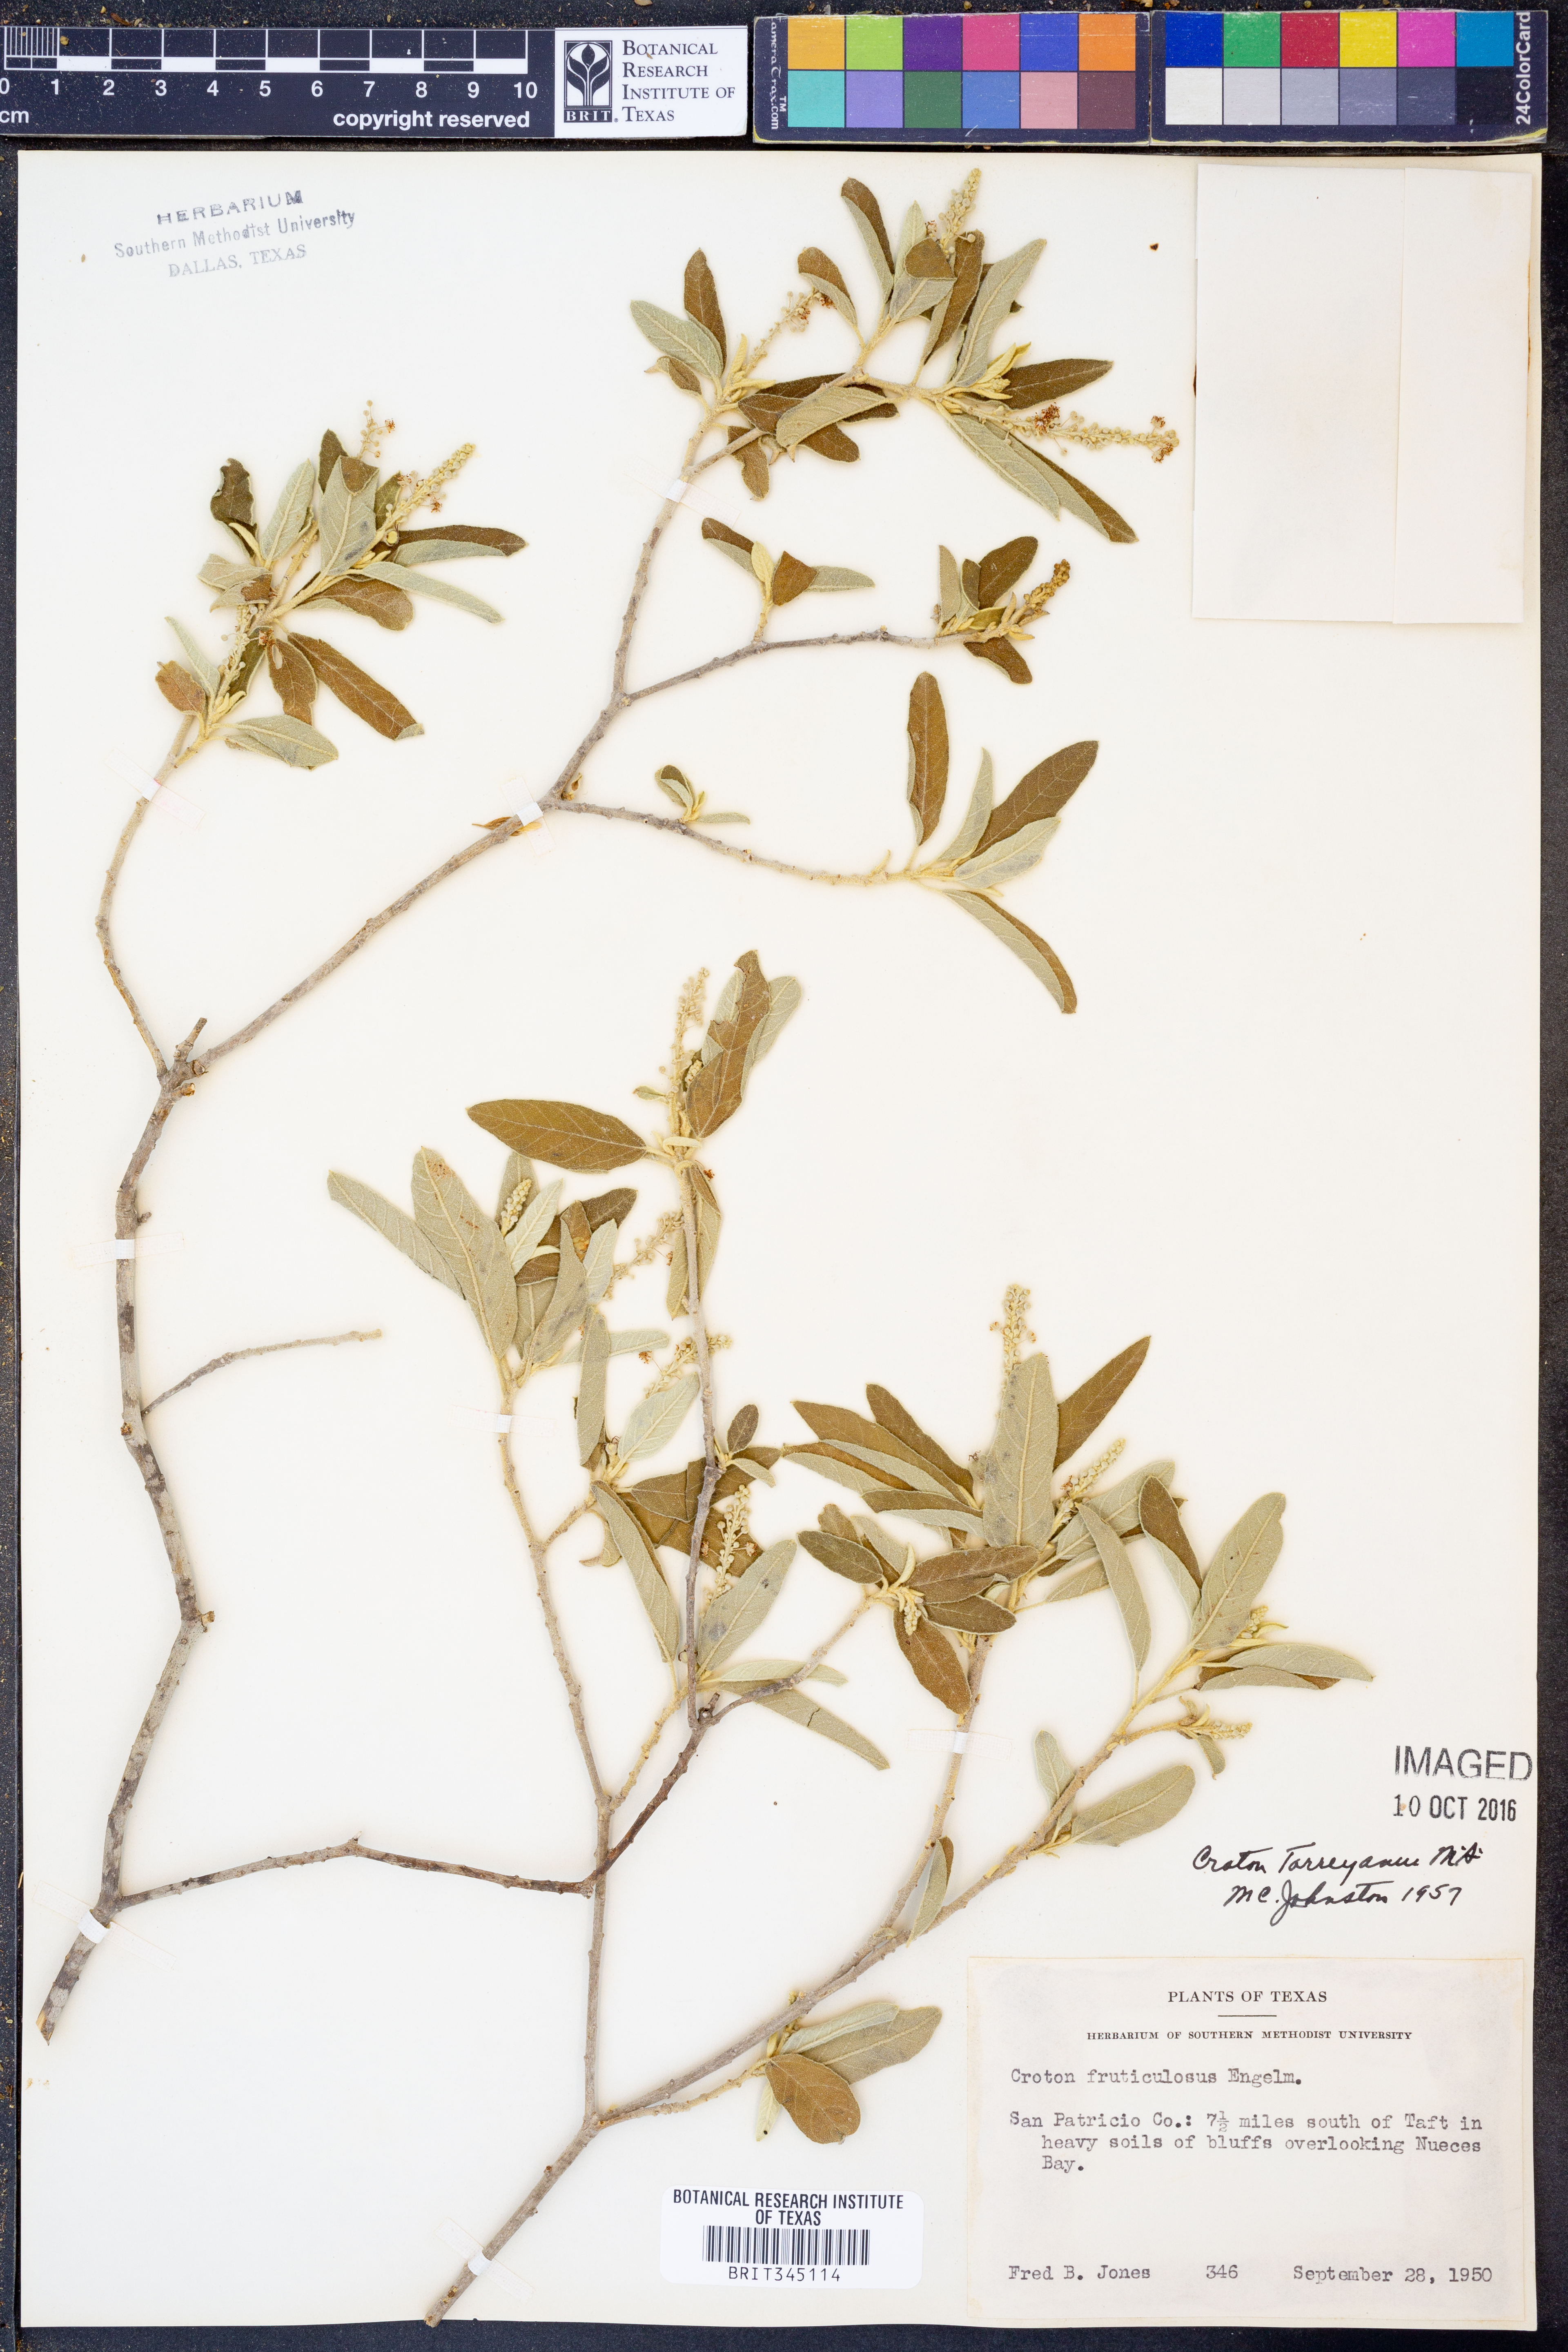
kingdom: Plantae
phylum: Tracheophyta
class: Magnoliopsida
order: Malpighiales
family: Euphorbiaceae
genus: Croton
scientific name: Croton incanus
